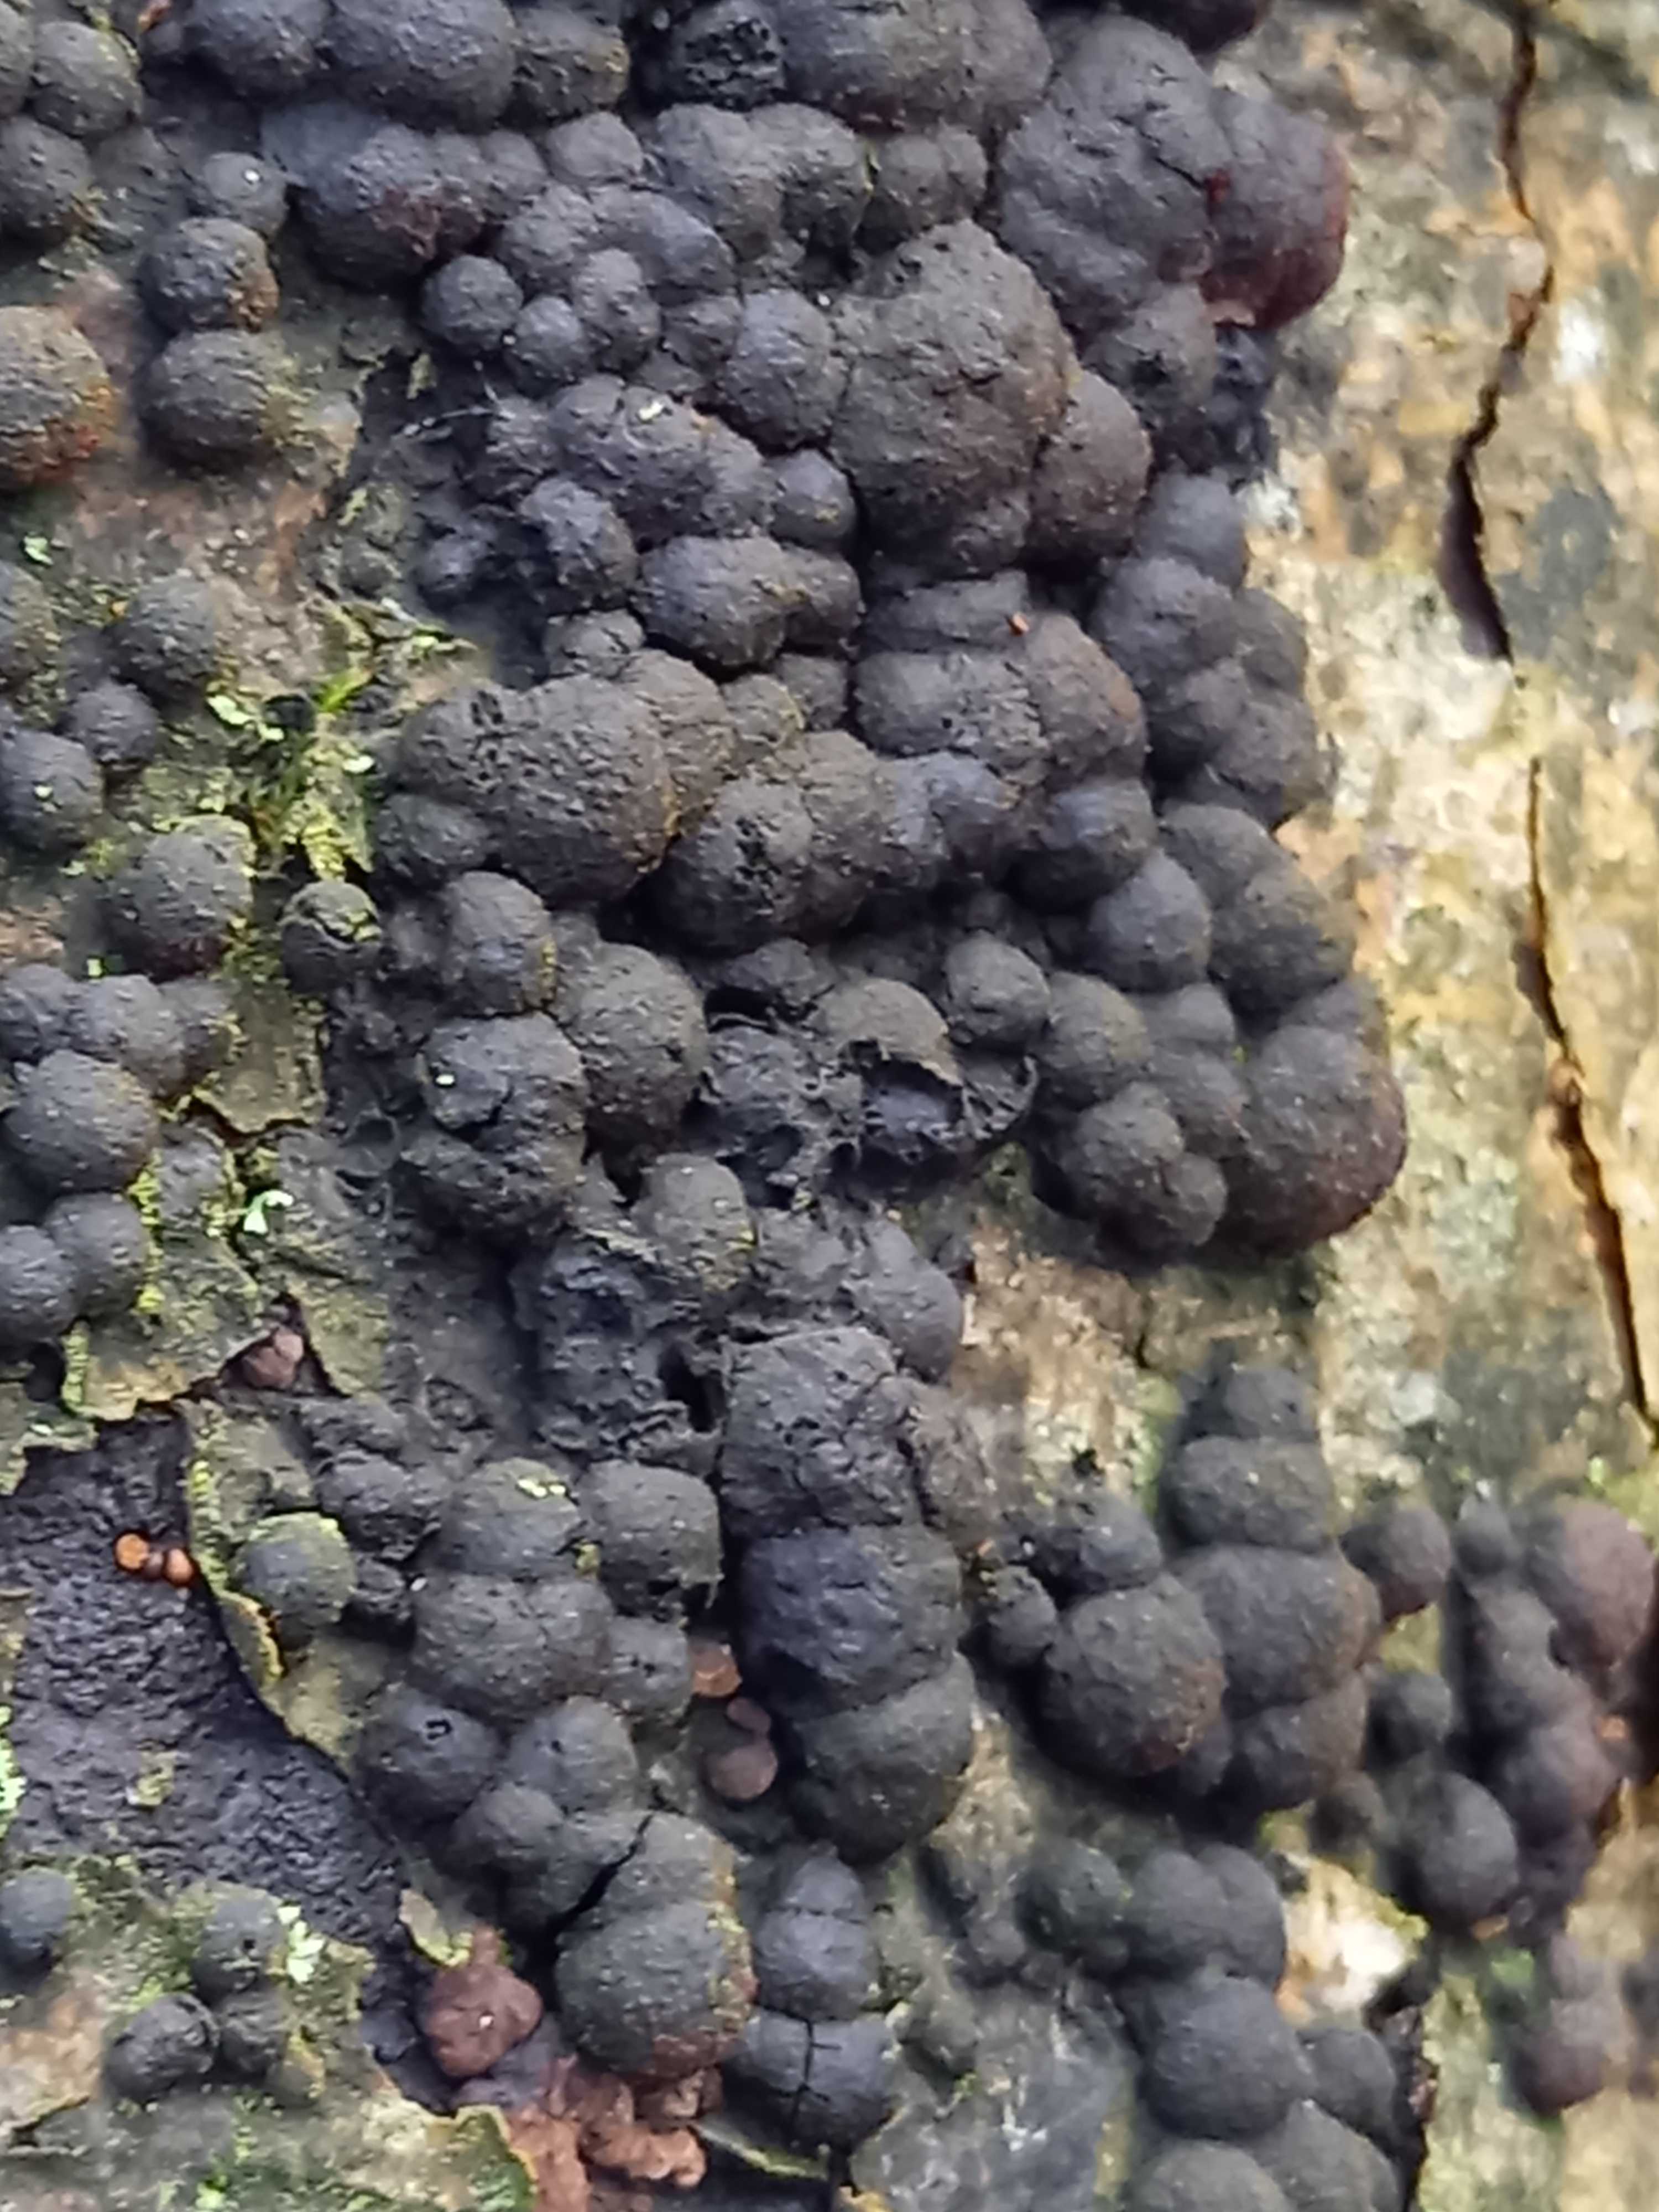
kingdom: Fungi
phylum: Ascomycota
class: Sordariomycetes
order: Xylariales
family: Hypoxylaceae
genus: Hypoxylon
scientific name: Hypoxylon fragiforme
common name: kuljordbær
